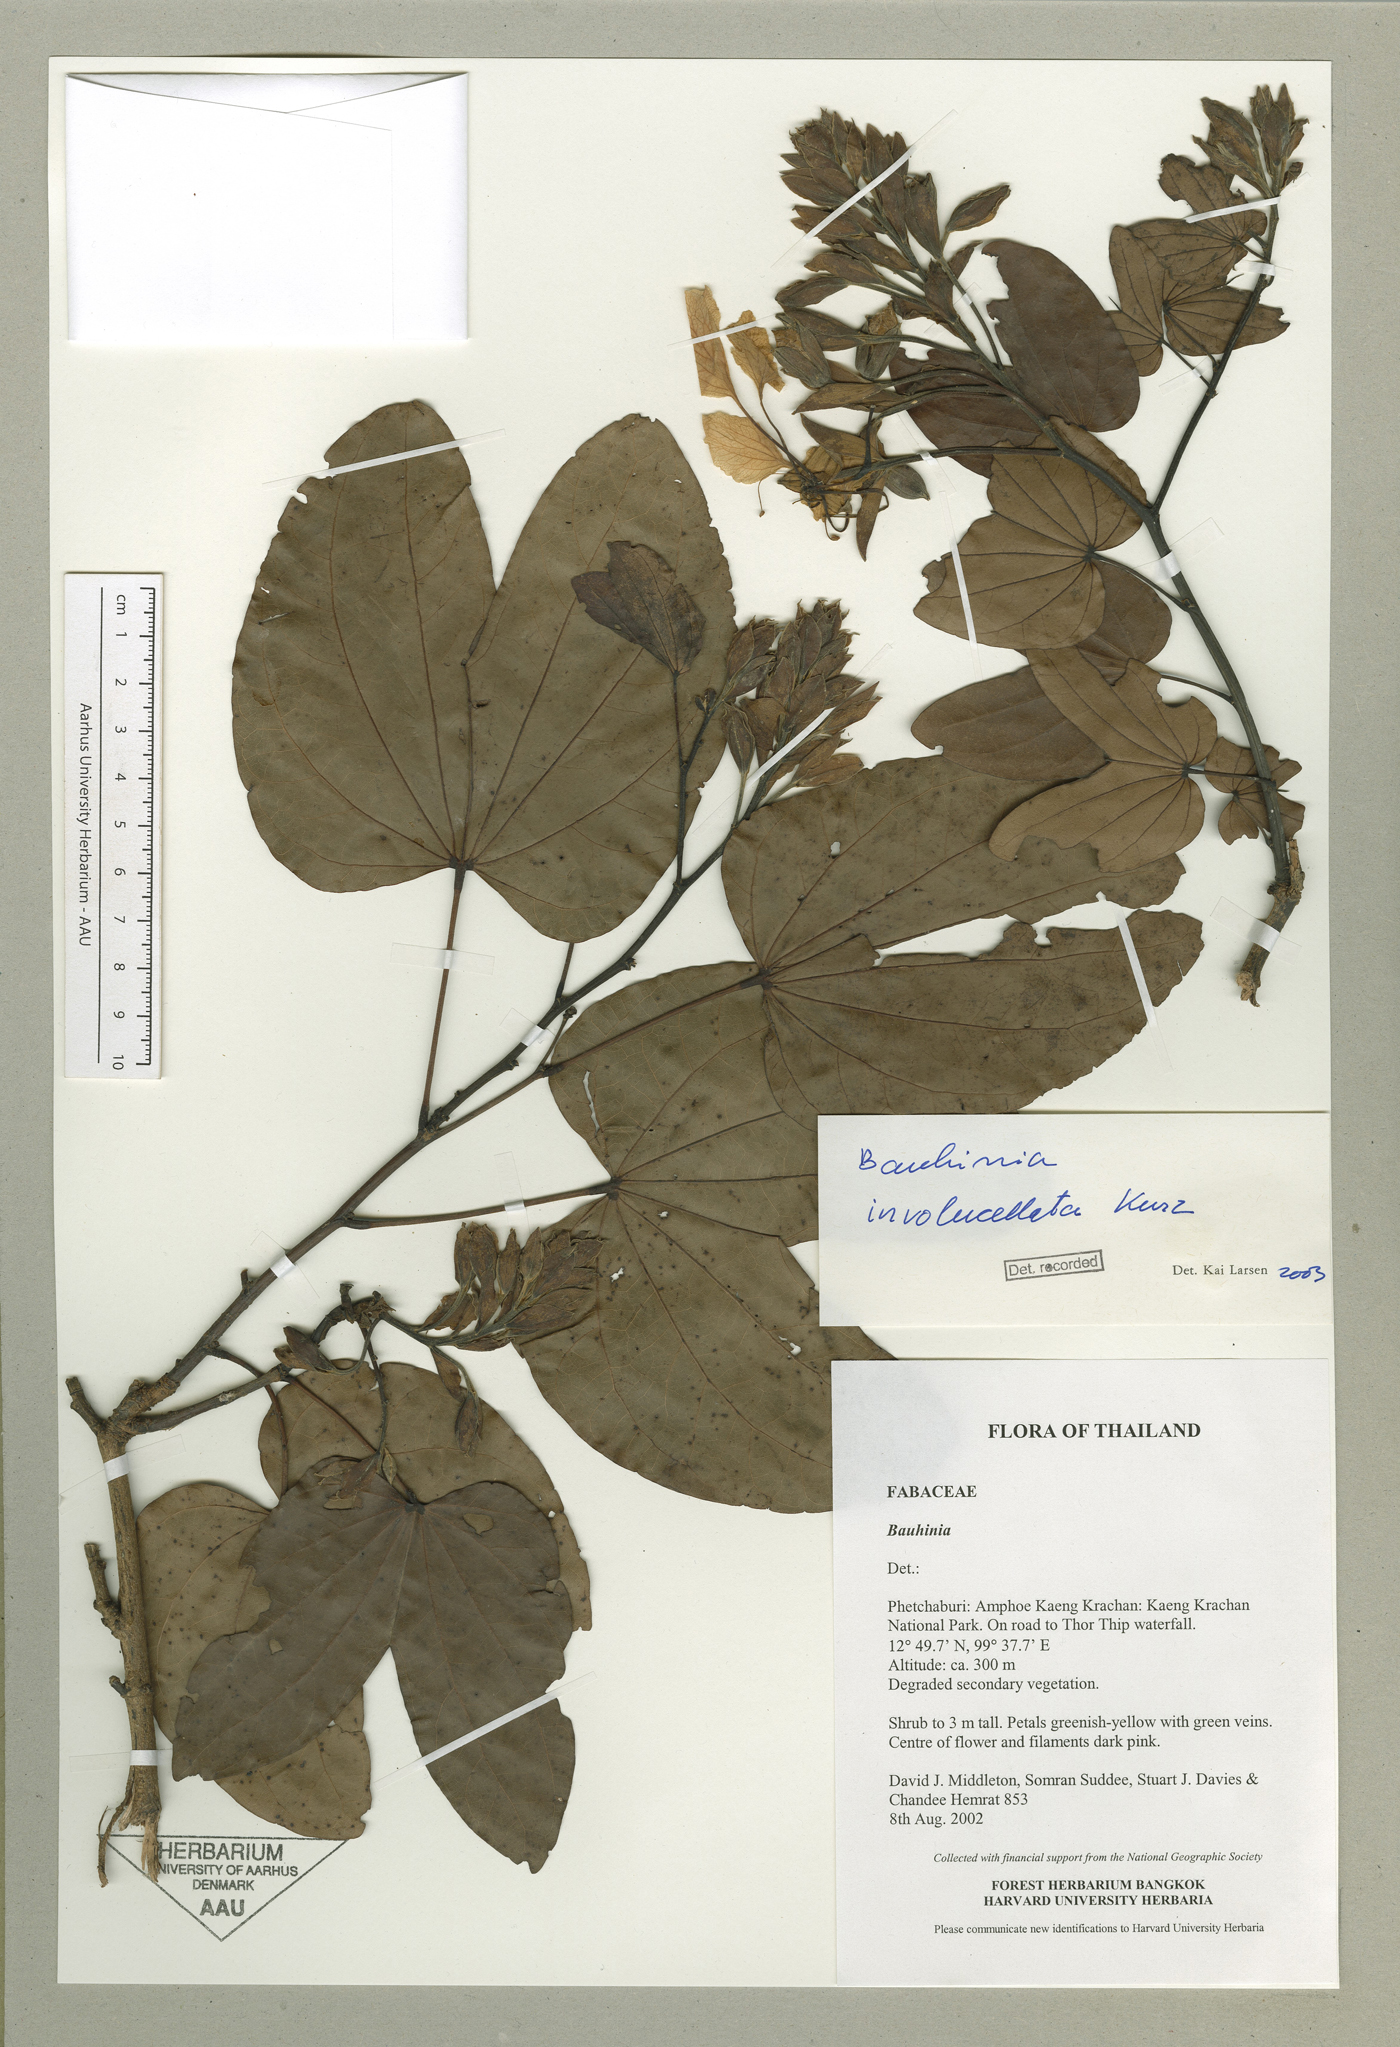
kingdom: Plantae
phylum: Tracheophyta
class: Magnoliopsida
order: Fabales
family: Fabaceae
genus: Phanera
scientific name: Phanera involucellata
